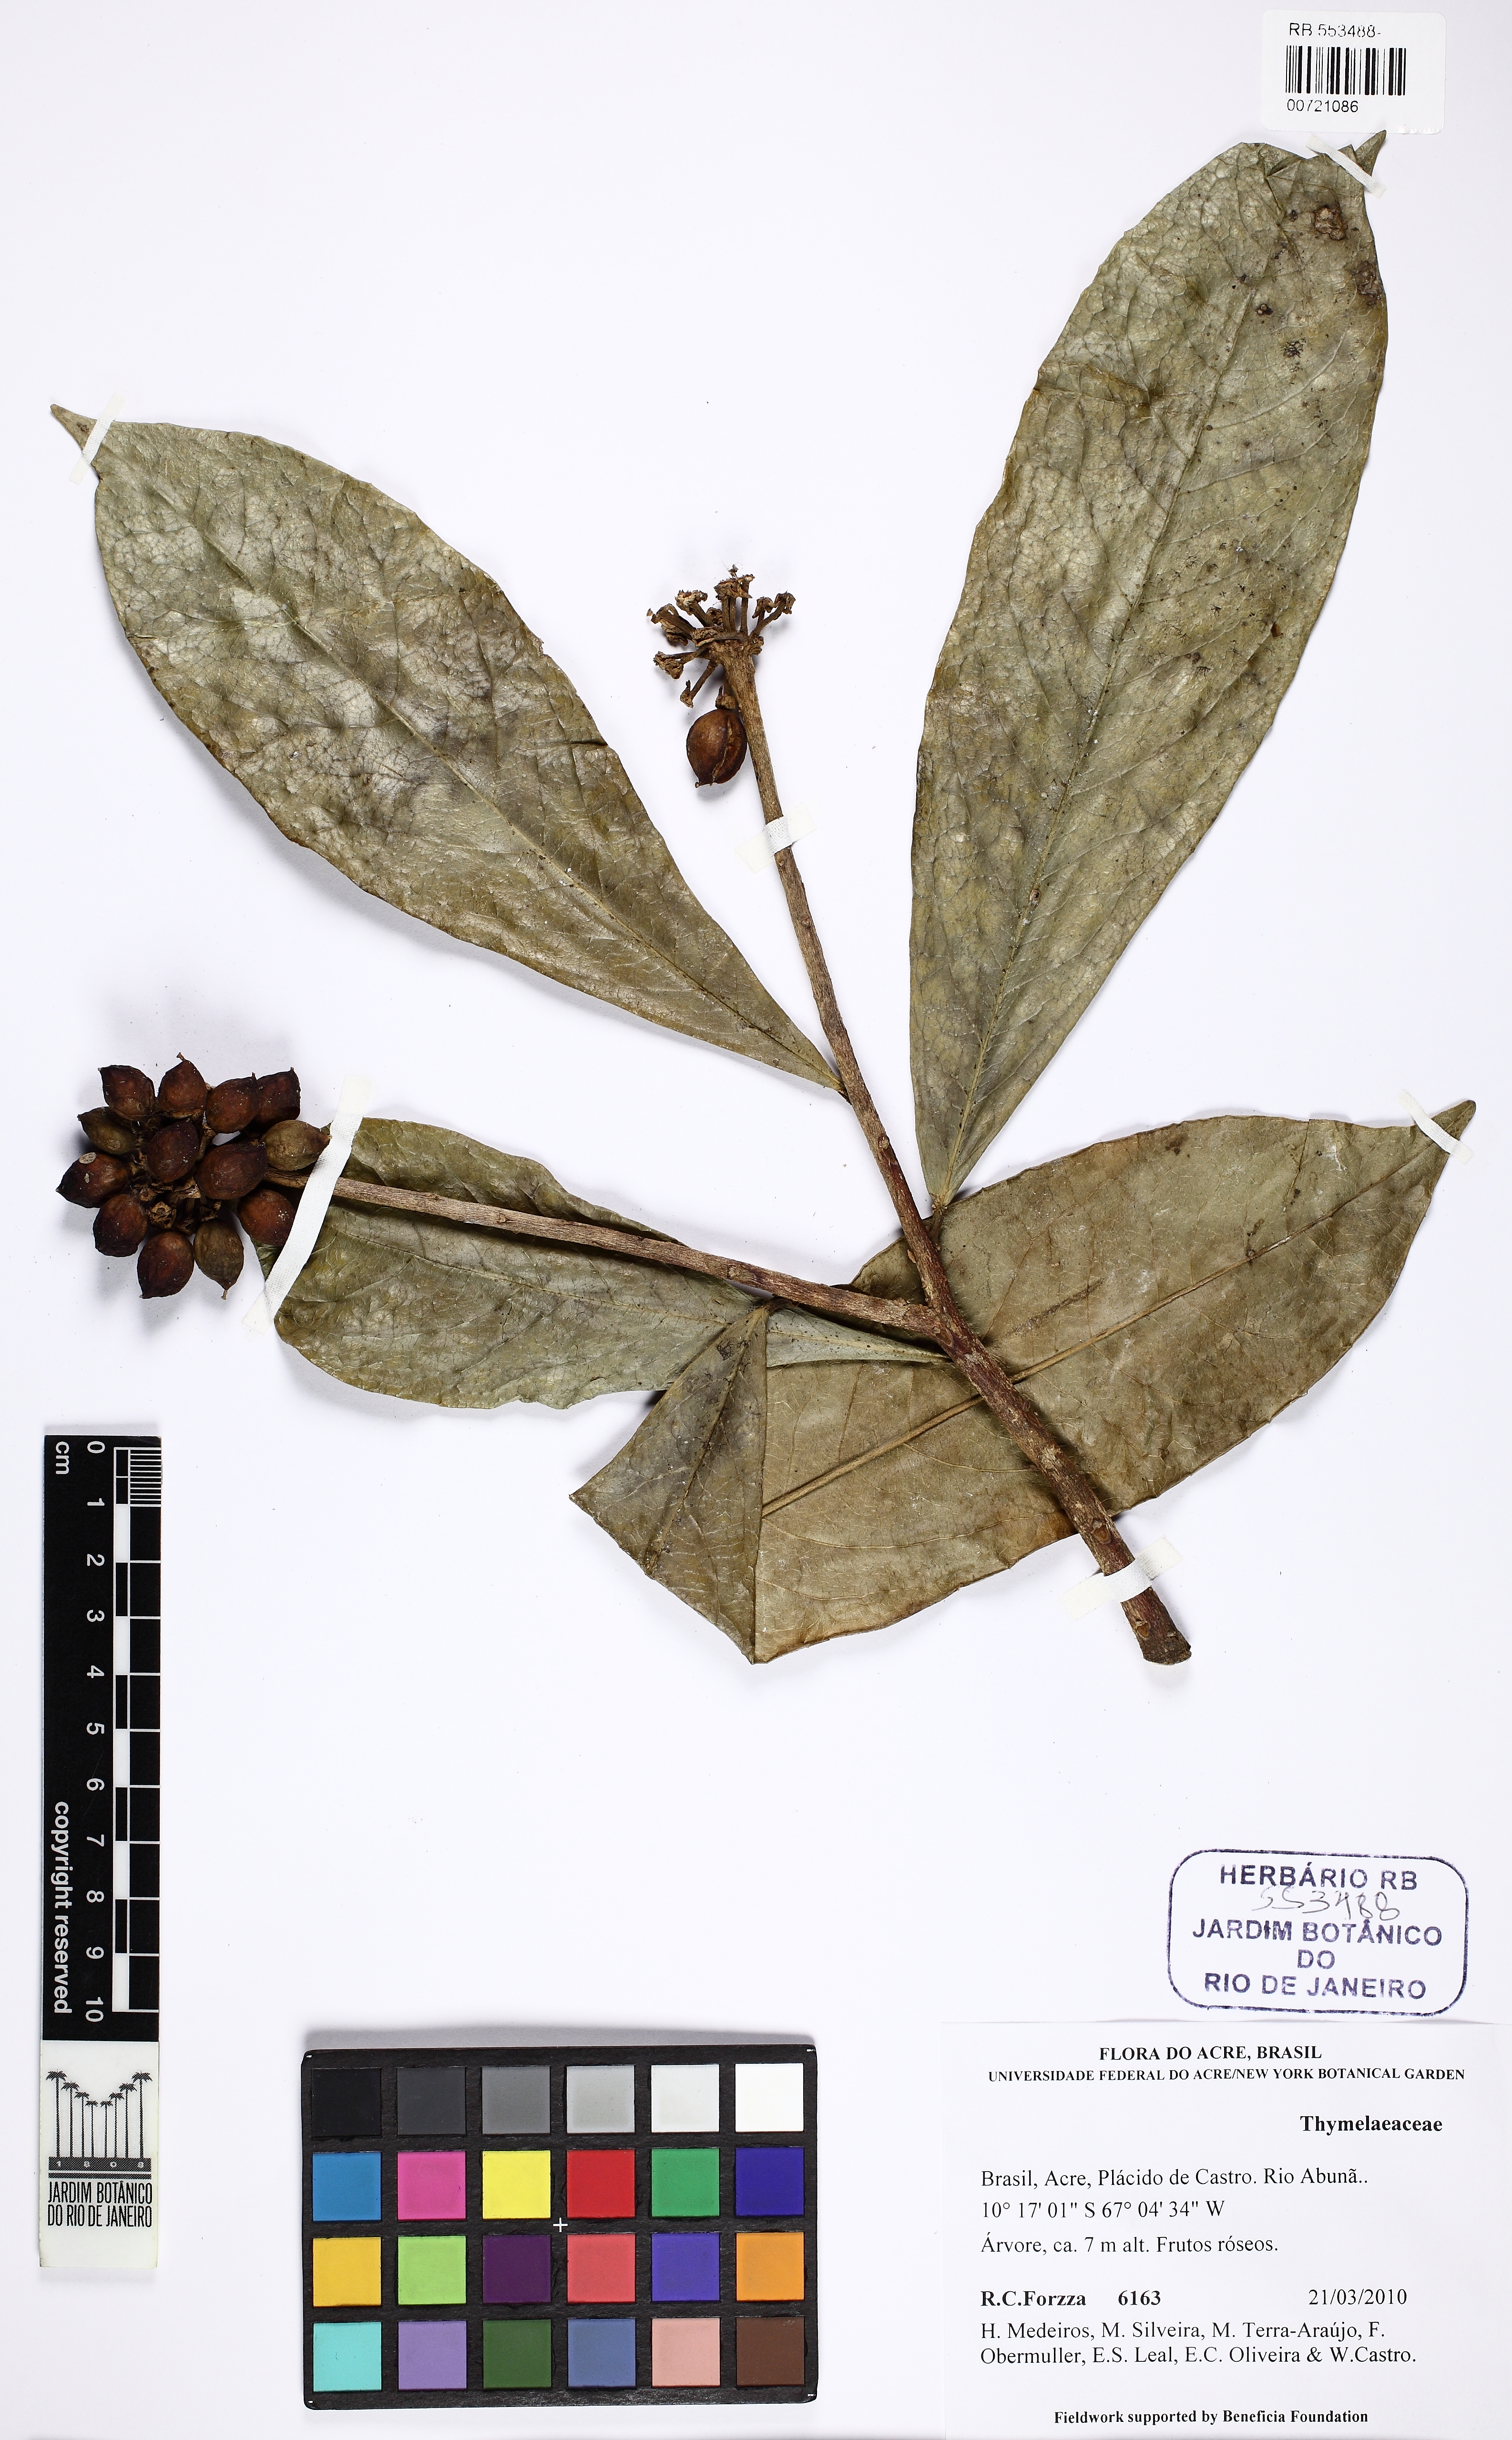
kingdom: Plantae
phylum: Tracheophyta
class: Magnoliopsida
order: Malvales
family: Thymelaeaceae
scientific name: Thymelaeaceae
